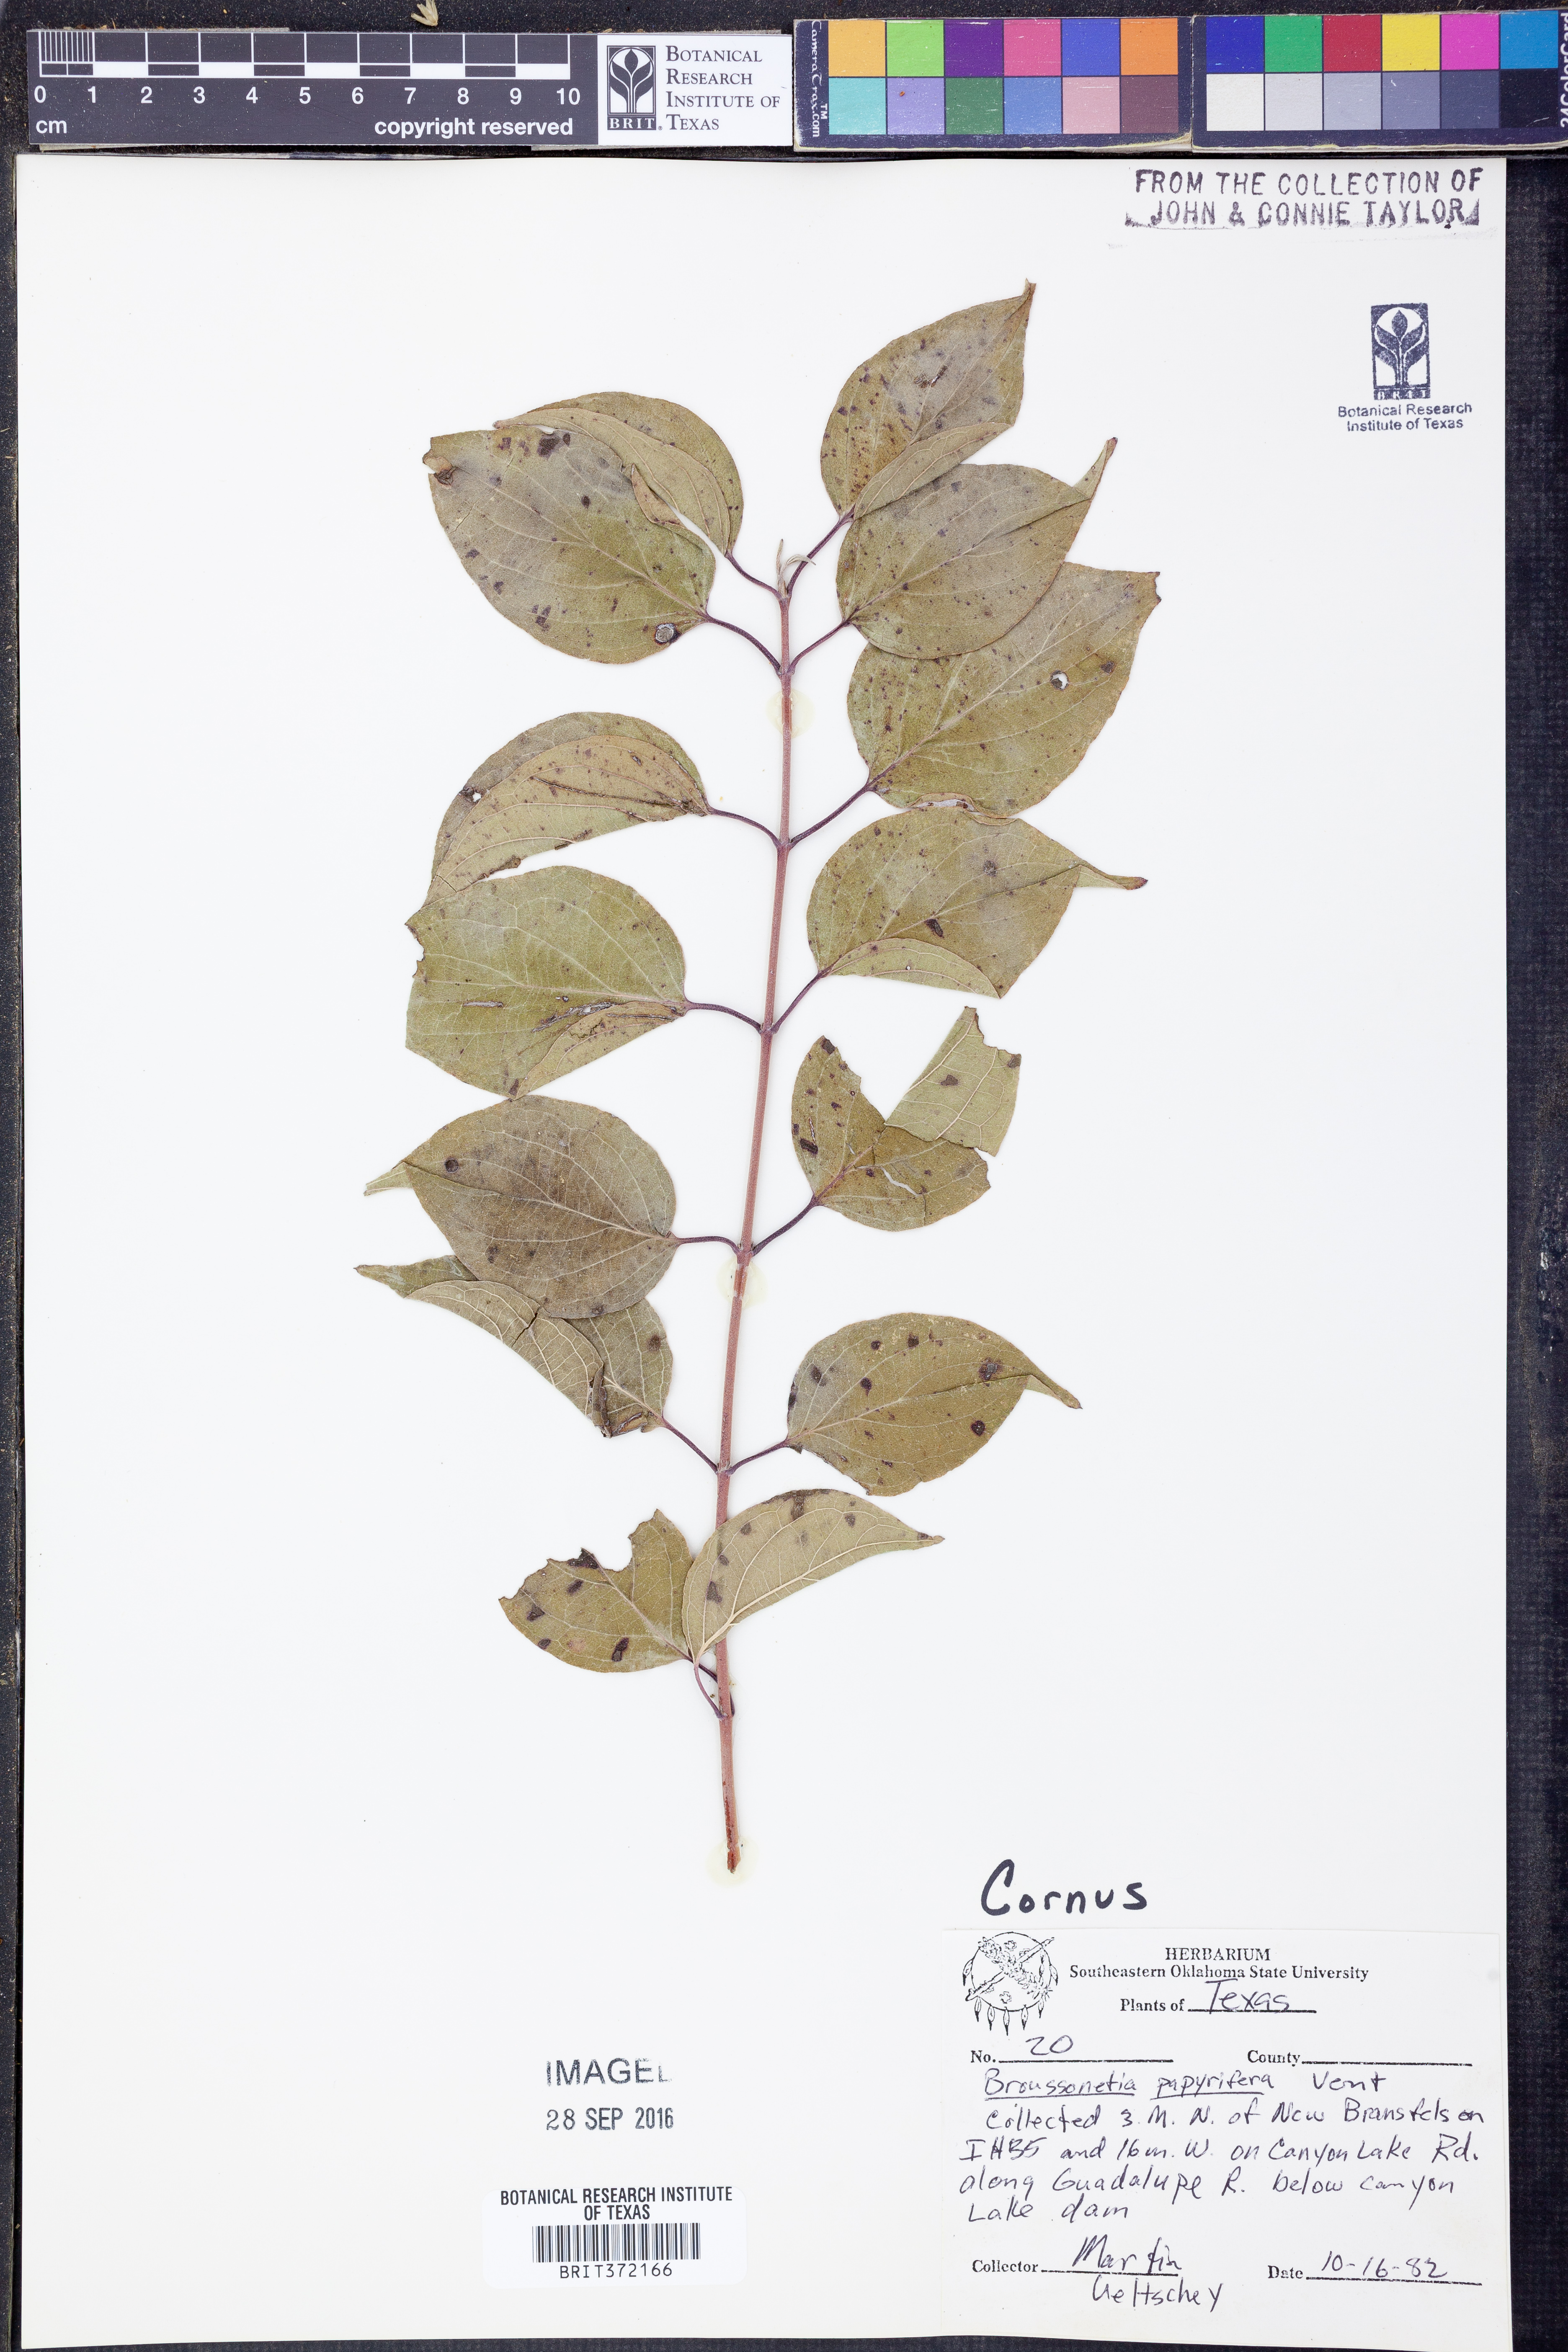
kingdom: Plantae
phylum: Tracheophyta
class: Magnoliopsida
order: Cornales
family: Cornaceae
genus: Cornus
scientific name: Cornus
